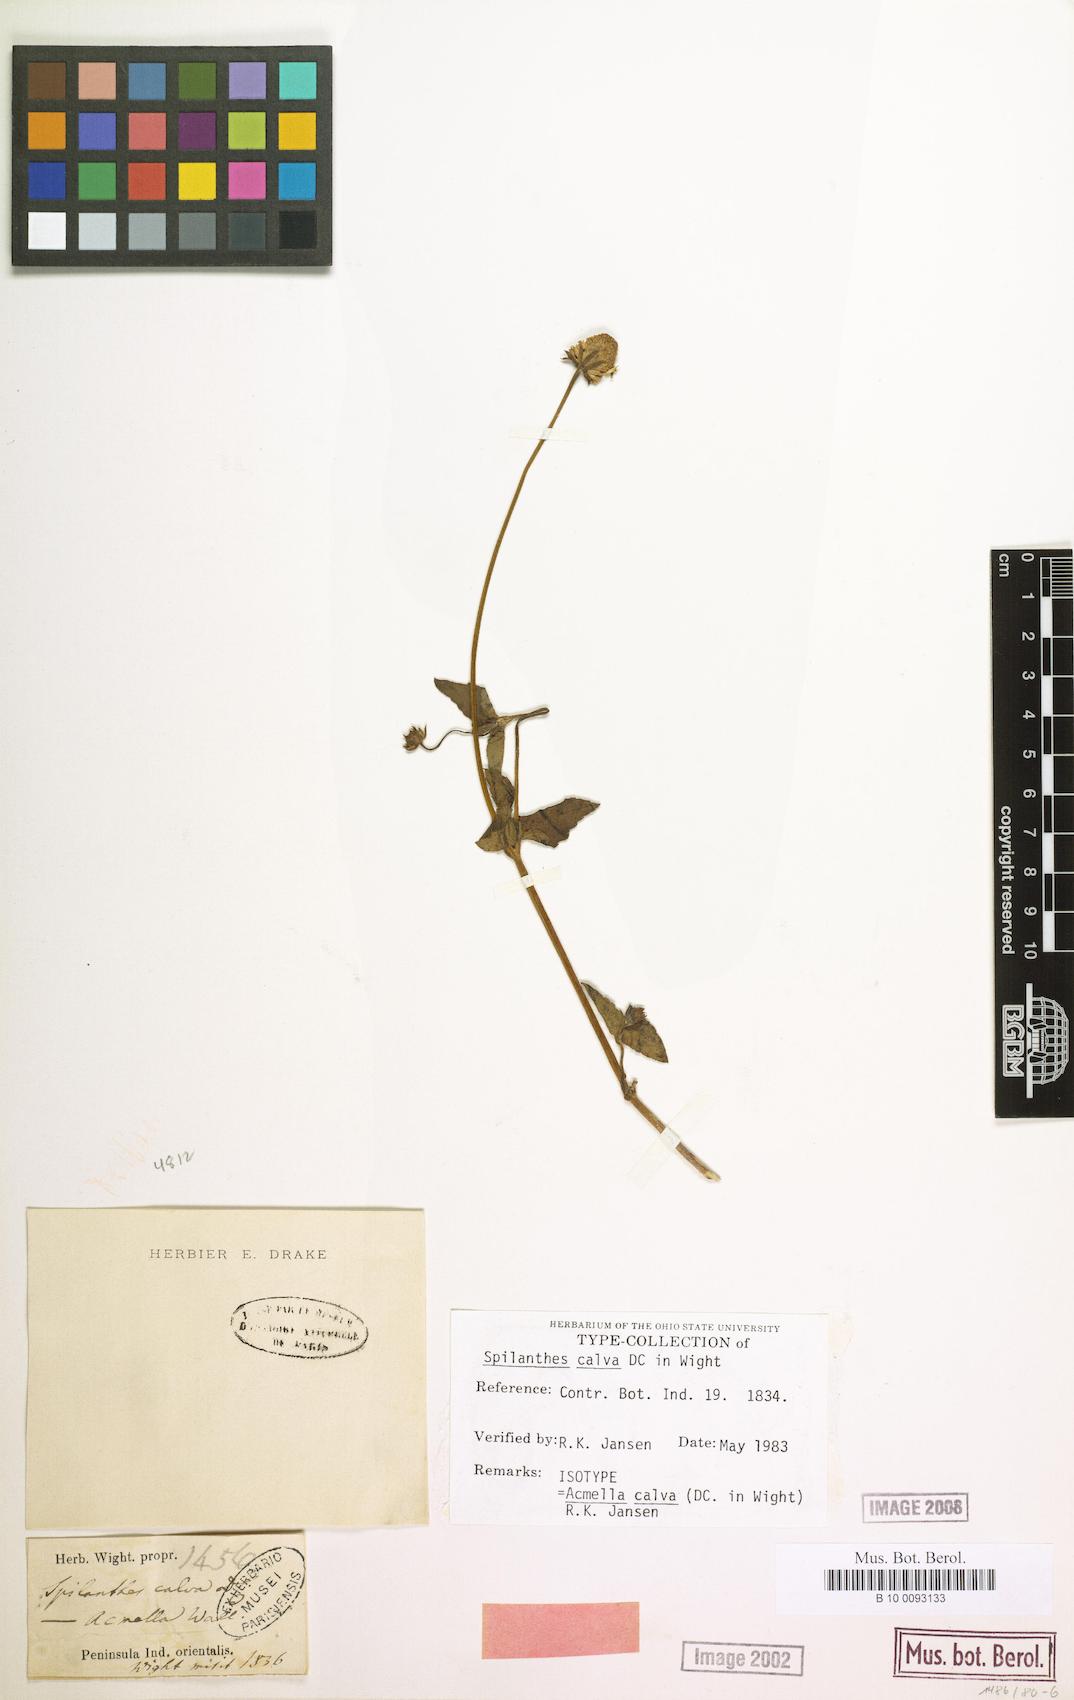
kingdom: Plantae
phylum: Tracheophyta
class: Magnoliopsida
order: Asterales
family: Asteraceae
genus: Acmella
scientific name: Acmella calva
